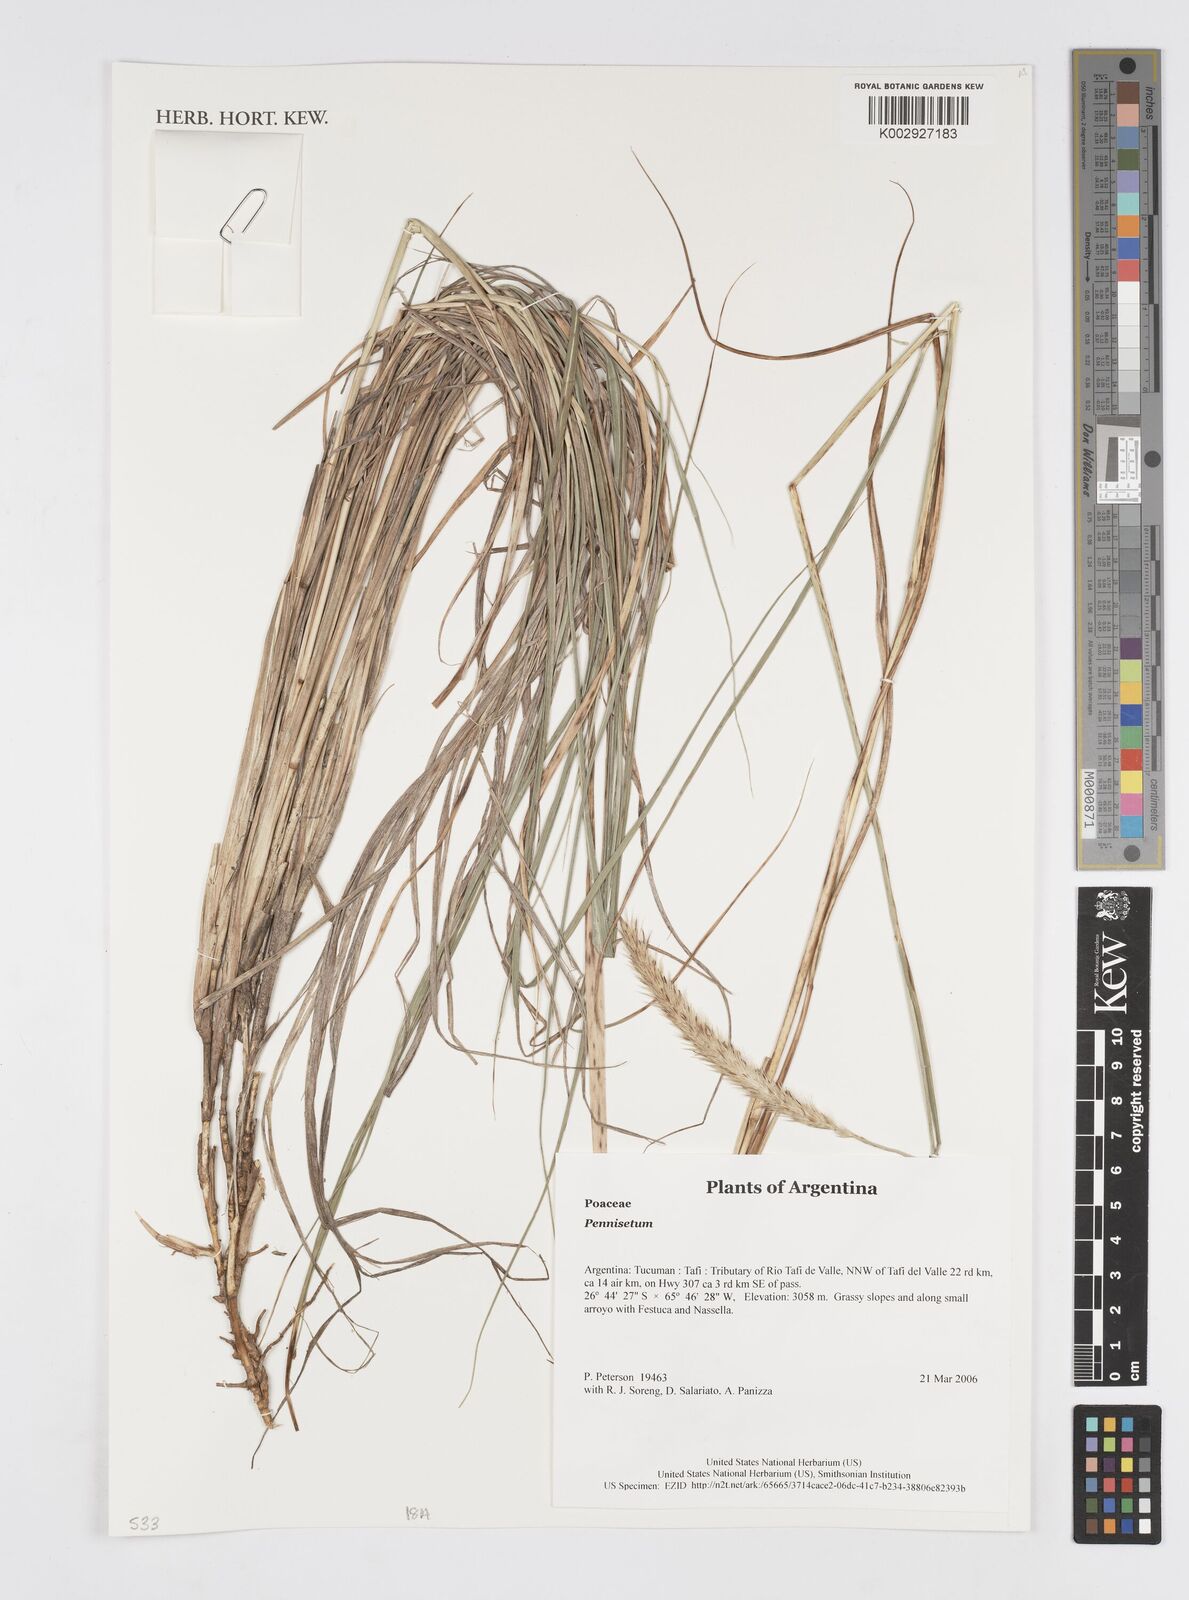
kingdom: Plantae
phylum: Tracheophyta
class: Liliopsida
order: Poales
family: Poaceae
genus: Cenchrus
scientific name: Cenchrus Pennisetum spec
